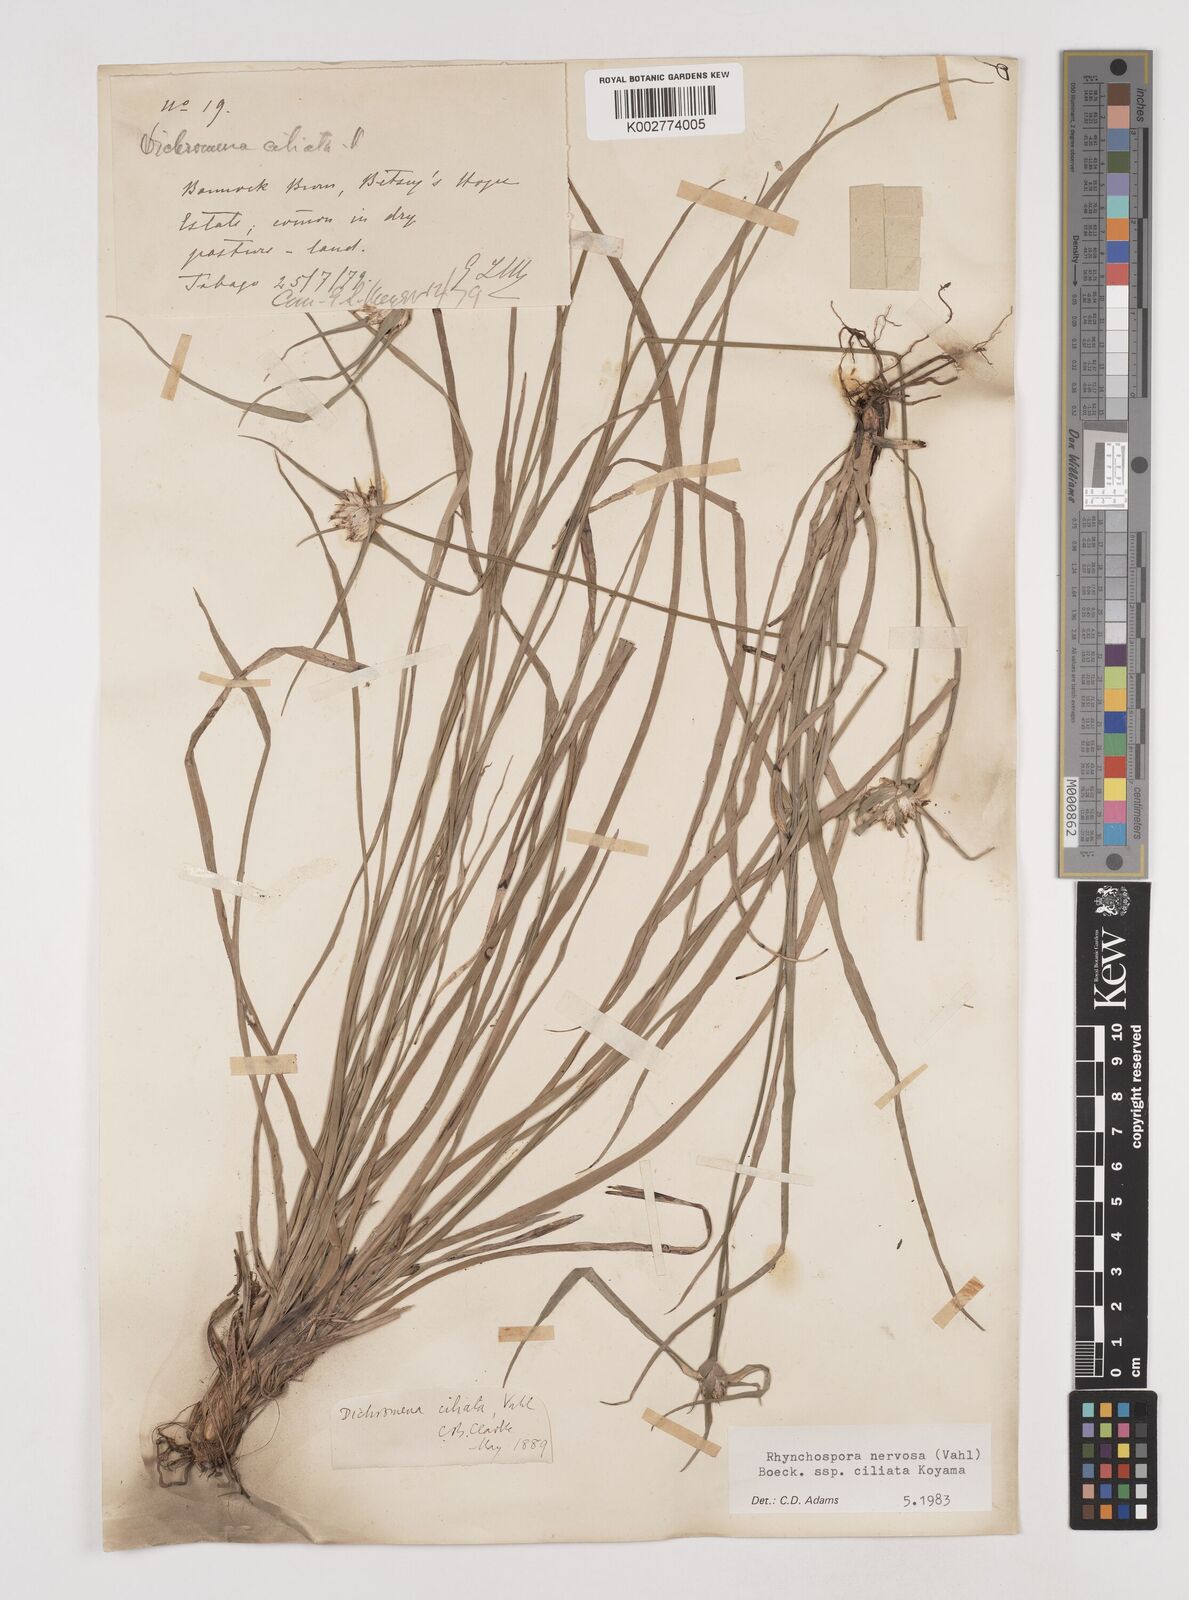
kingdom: Plantae
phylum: Tracheophyta
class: Liliopsida
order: Poales
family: Cyperaceae
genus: Rhynchospora
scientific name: Rhynchospora pura
